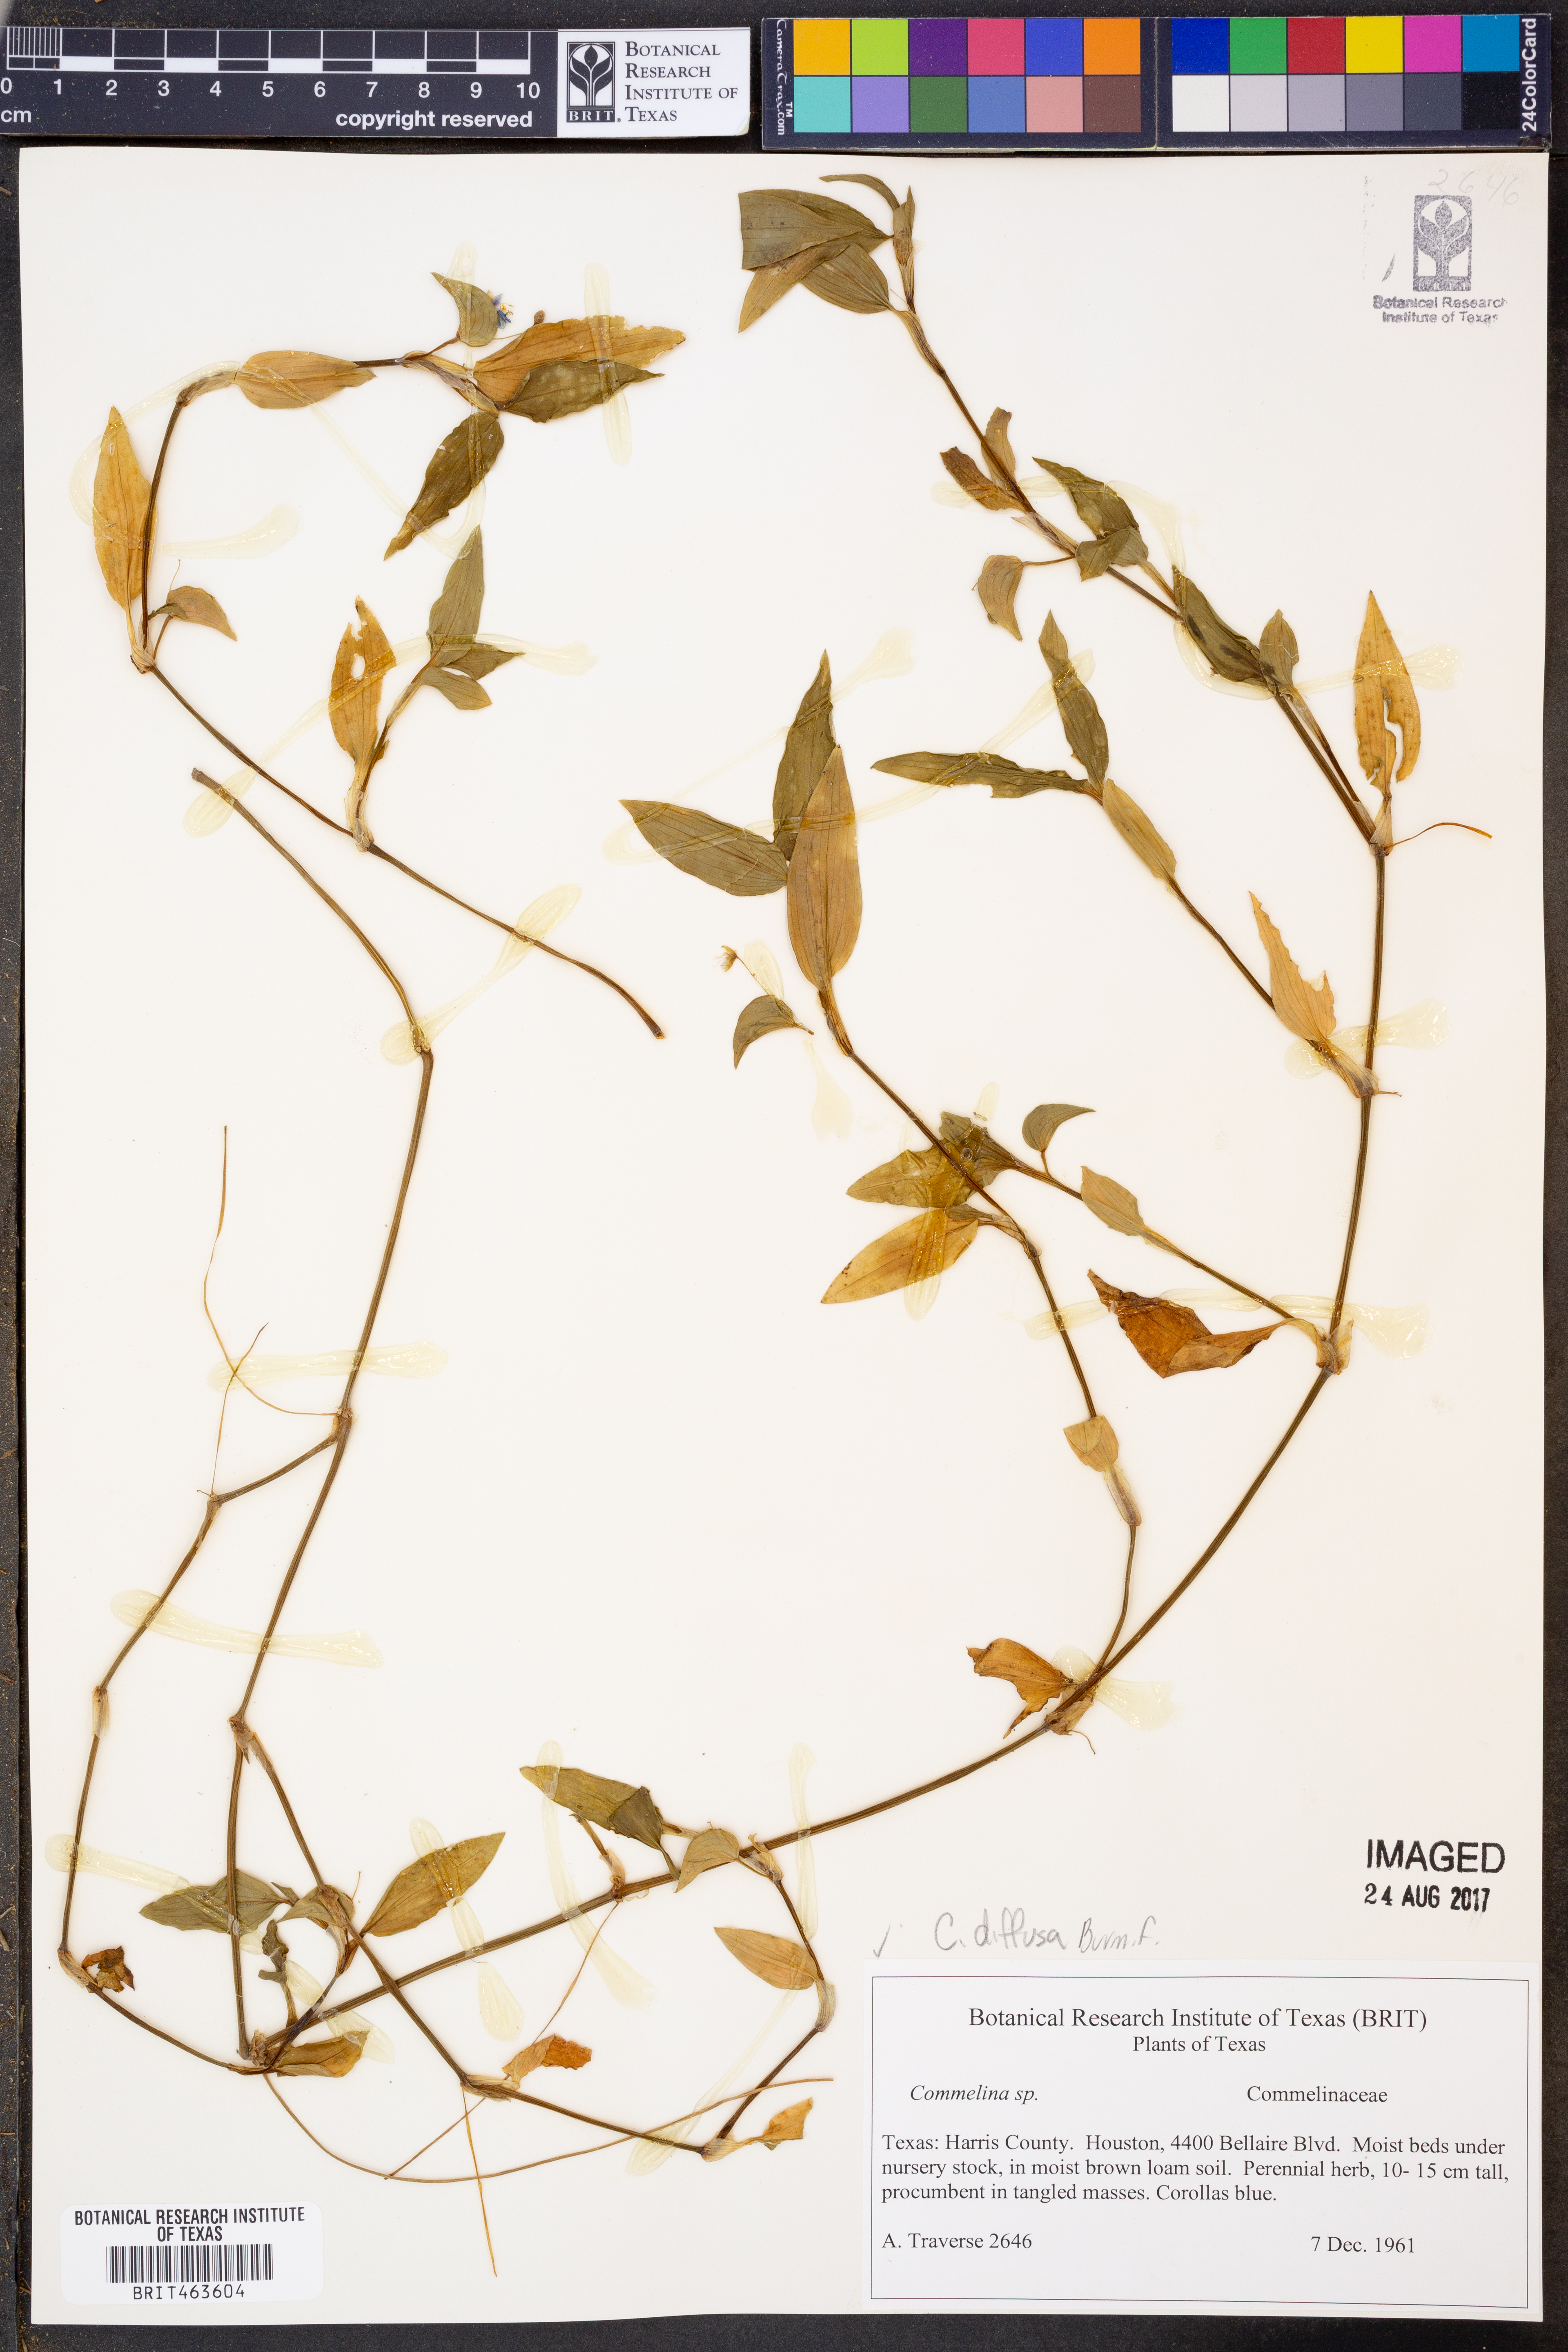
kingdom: Plantae
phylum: Tracheophyta
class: Liliopsida
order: Commelinales
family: Commelinaceae
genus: Commelina
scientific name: Commelina diffusa
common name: Climbing dayflower
